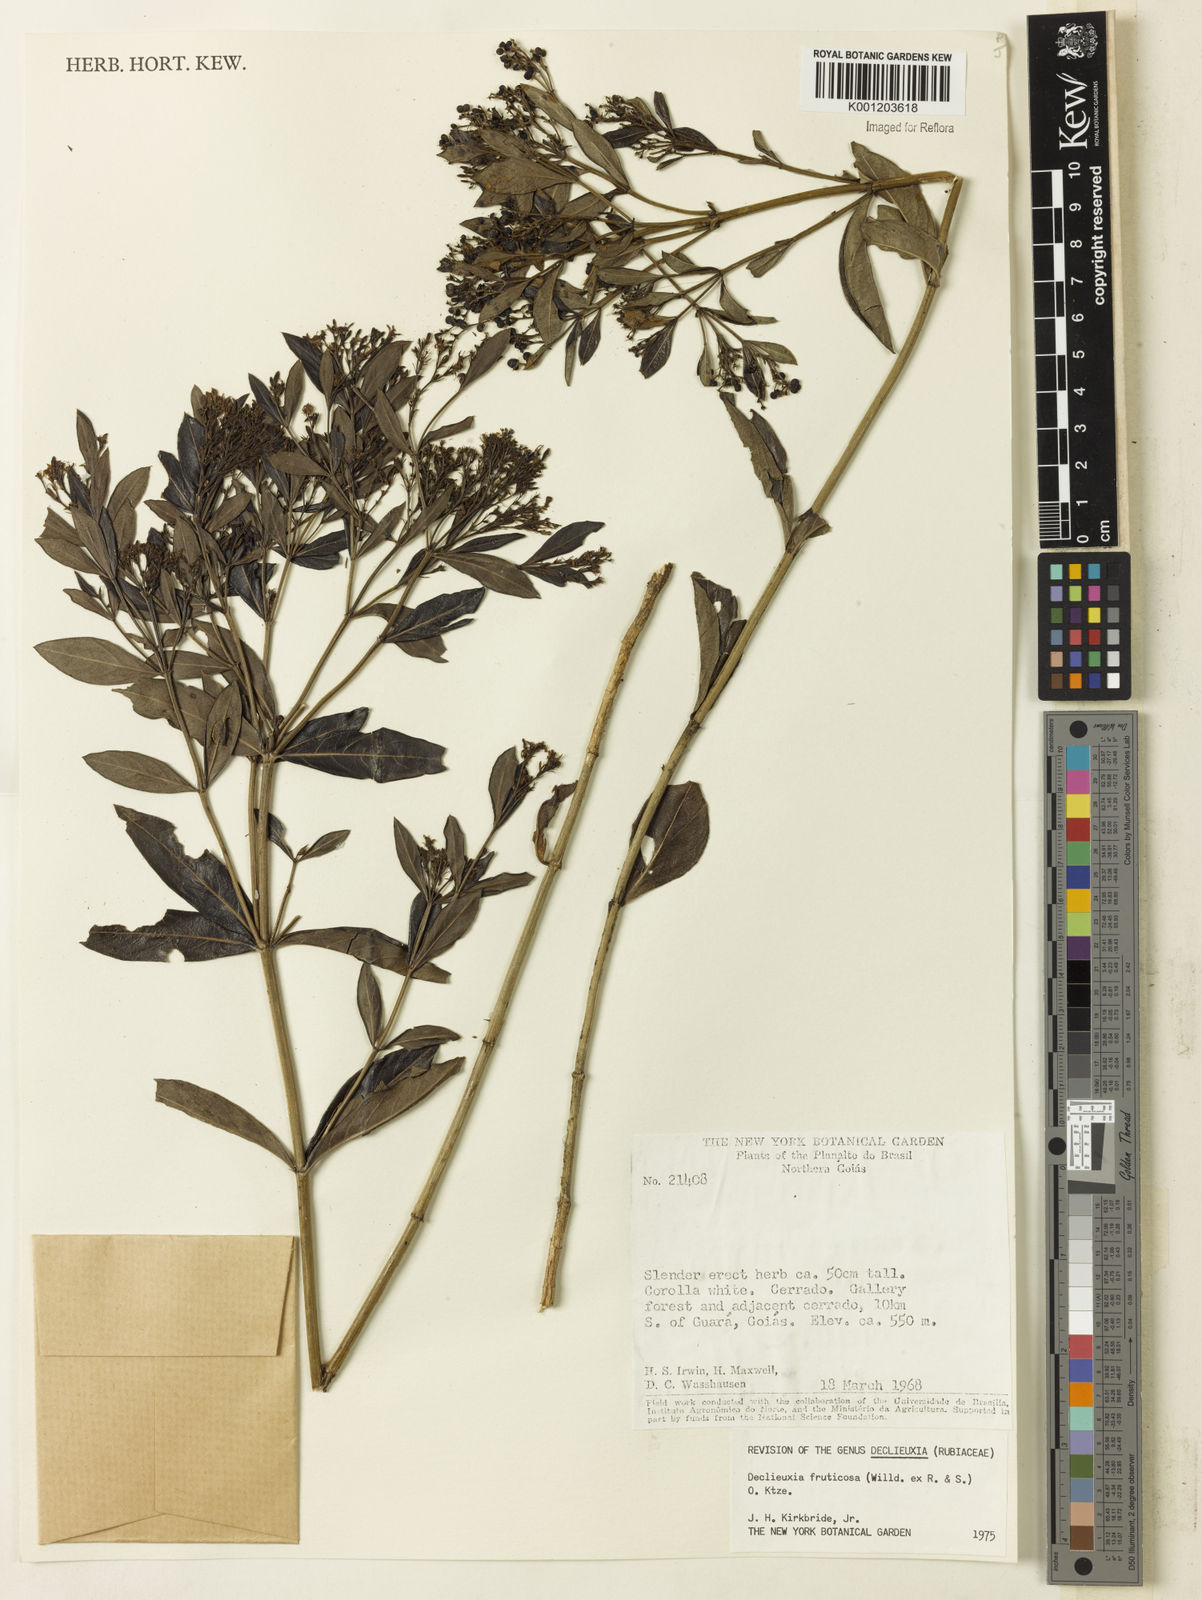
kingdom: Plantae
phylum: Tracheophyta
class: Magnoliopsida
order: Gentianales
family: Rubiaceae
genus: Declieuxia
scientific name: Declieuxia fruticosa
